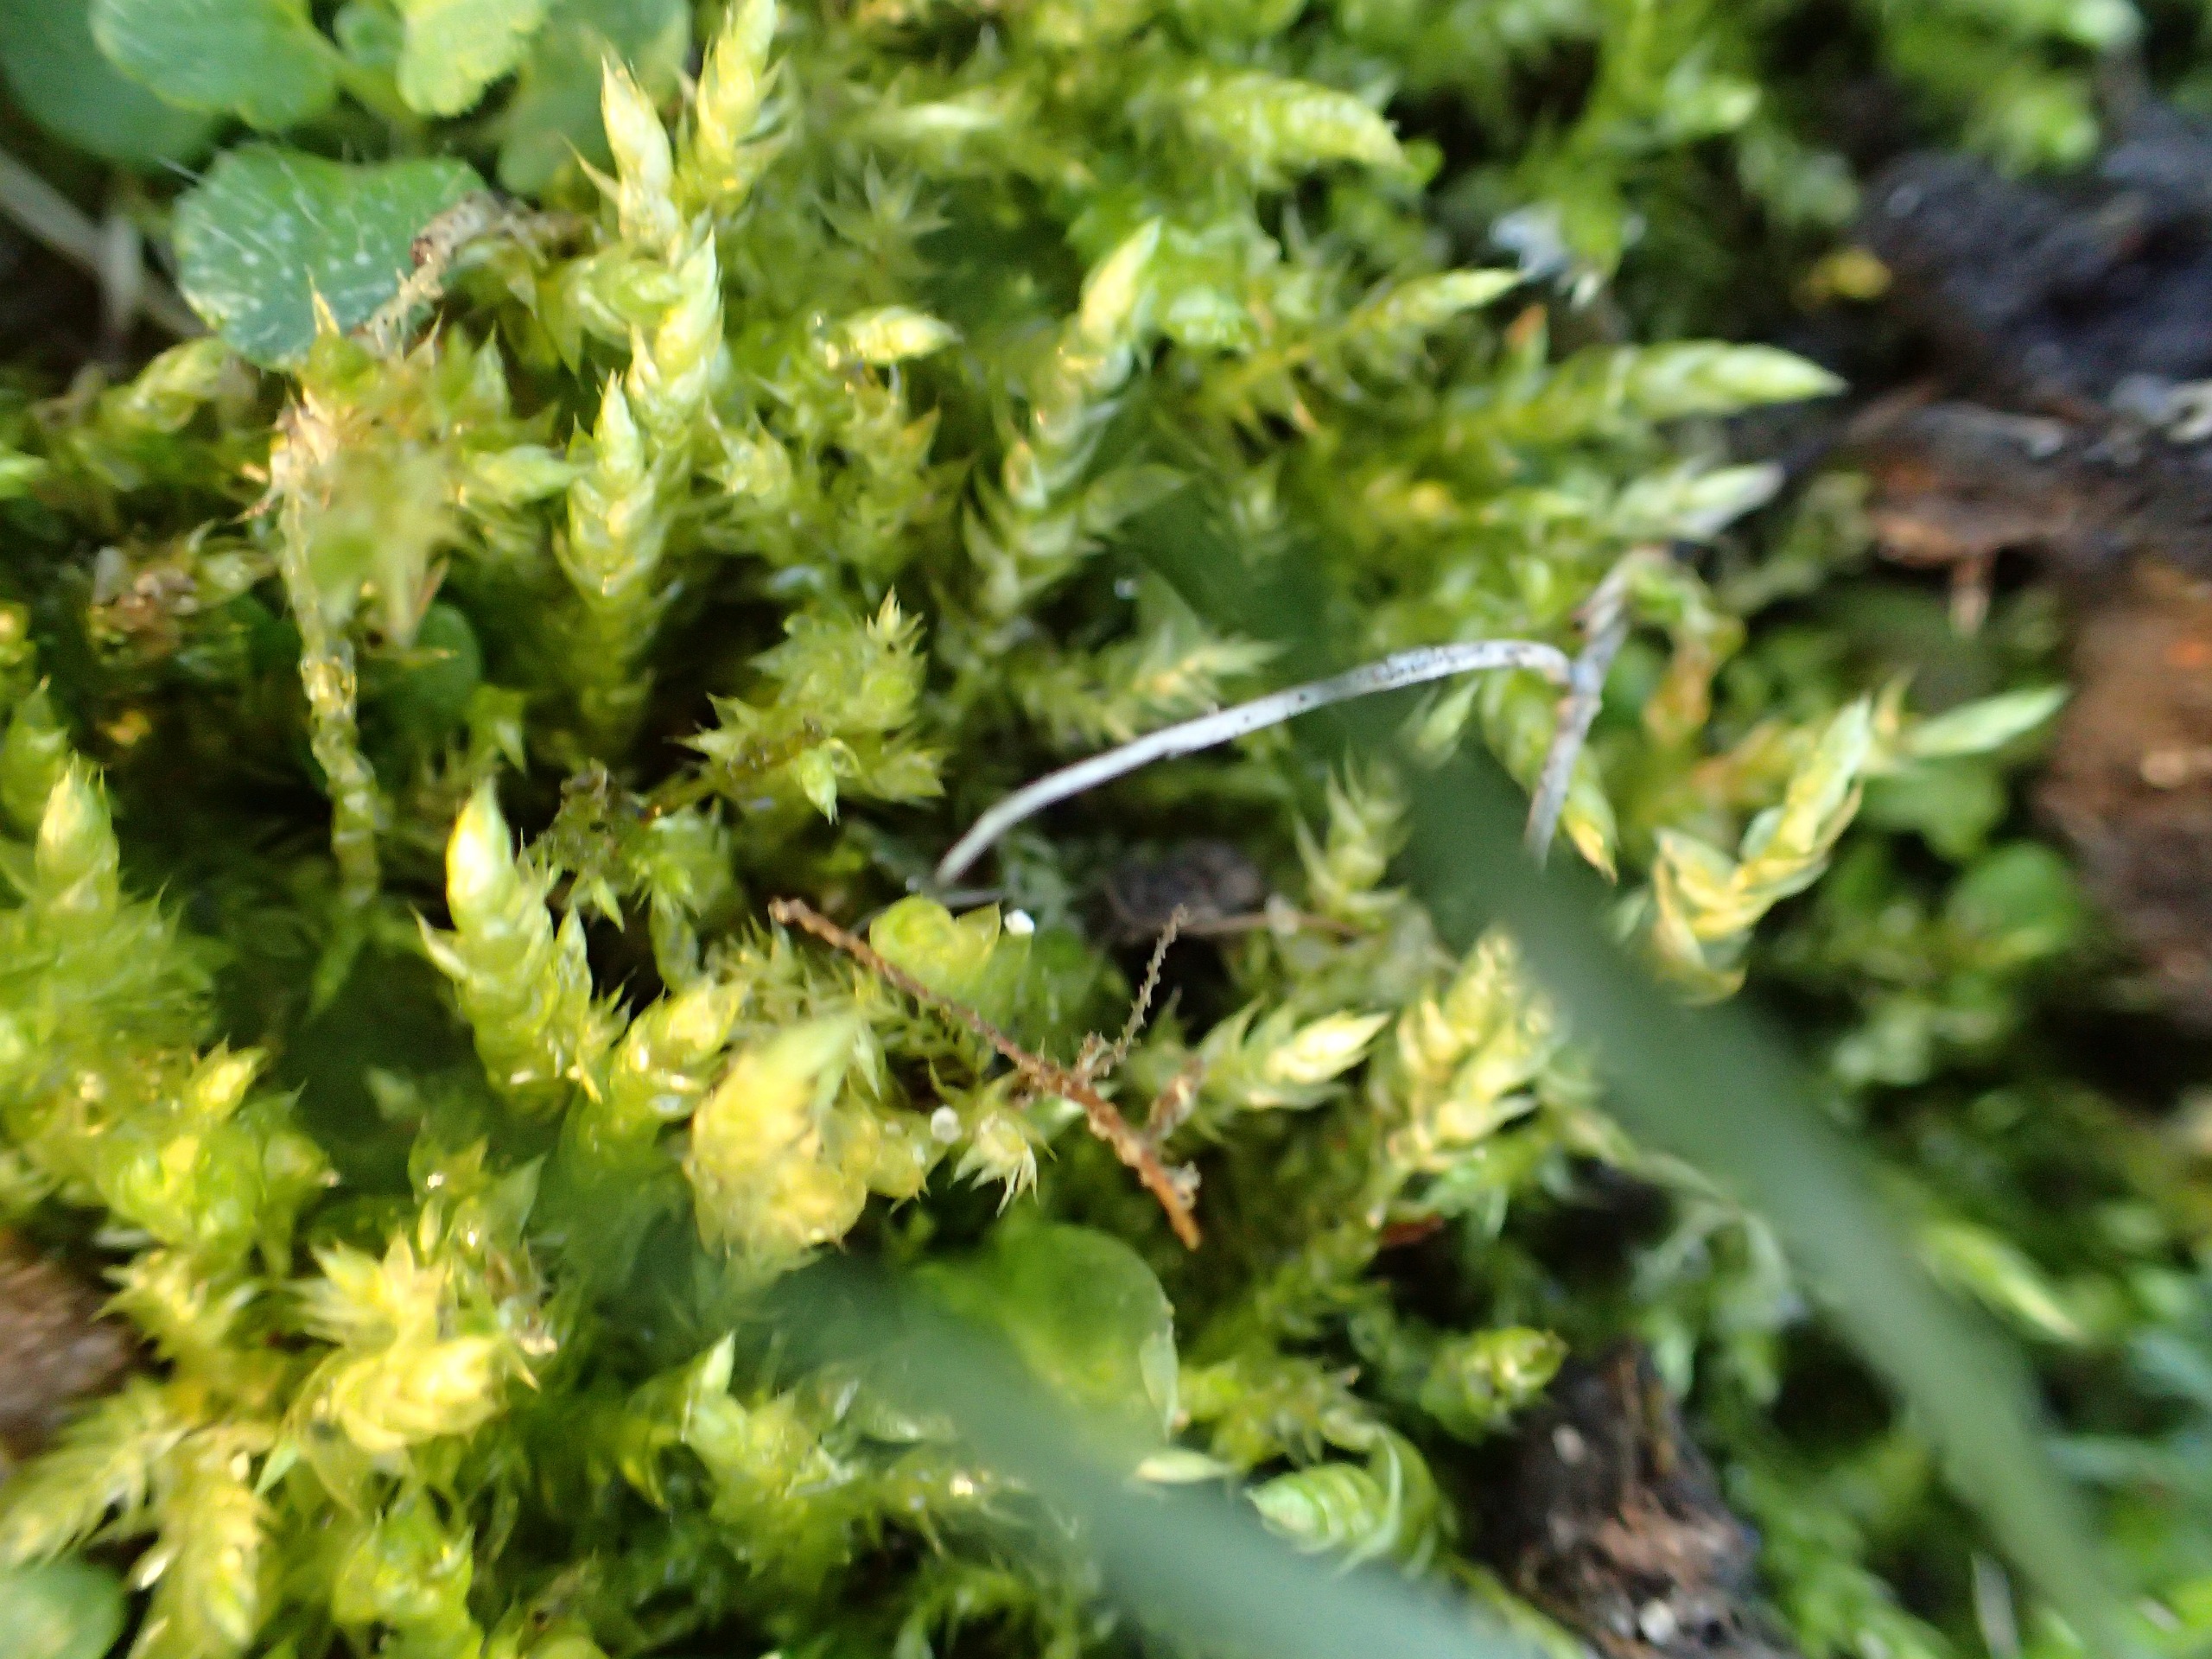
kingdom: Plantae
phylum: Bryophyta
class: Bryopsida
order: Hypnales
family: Brachytheciaceae
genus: Brachythecium
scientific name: Brachythecium rutabulum
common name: Almindelig kortkapsel
